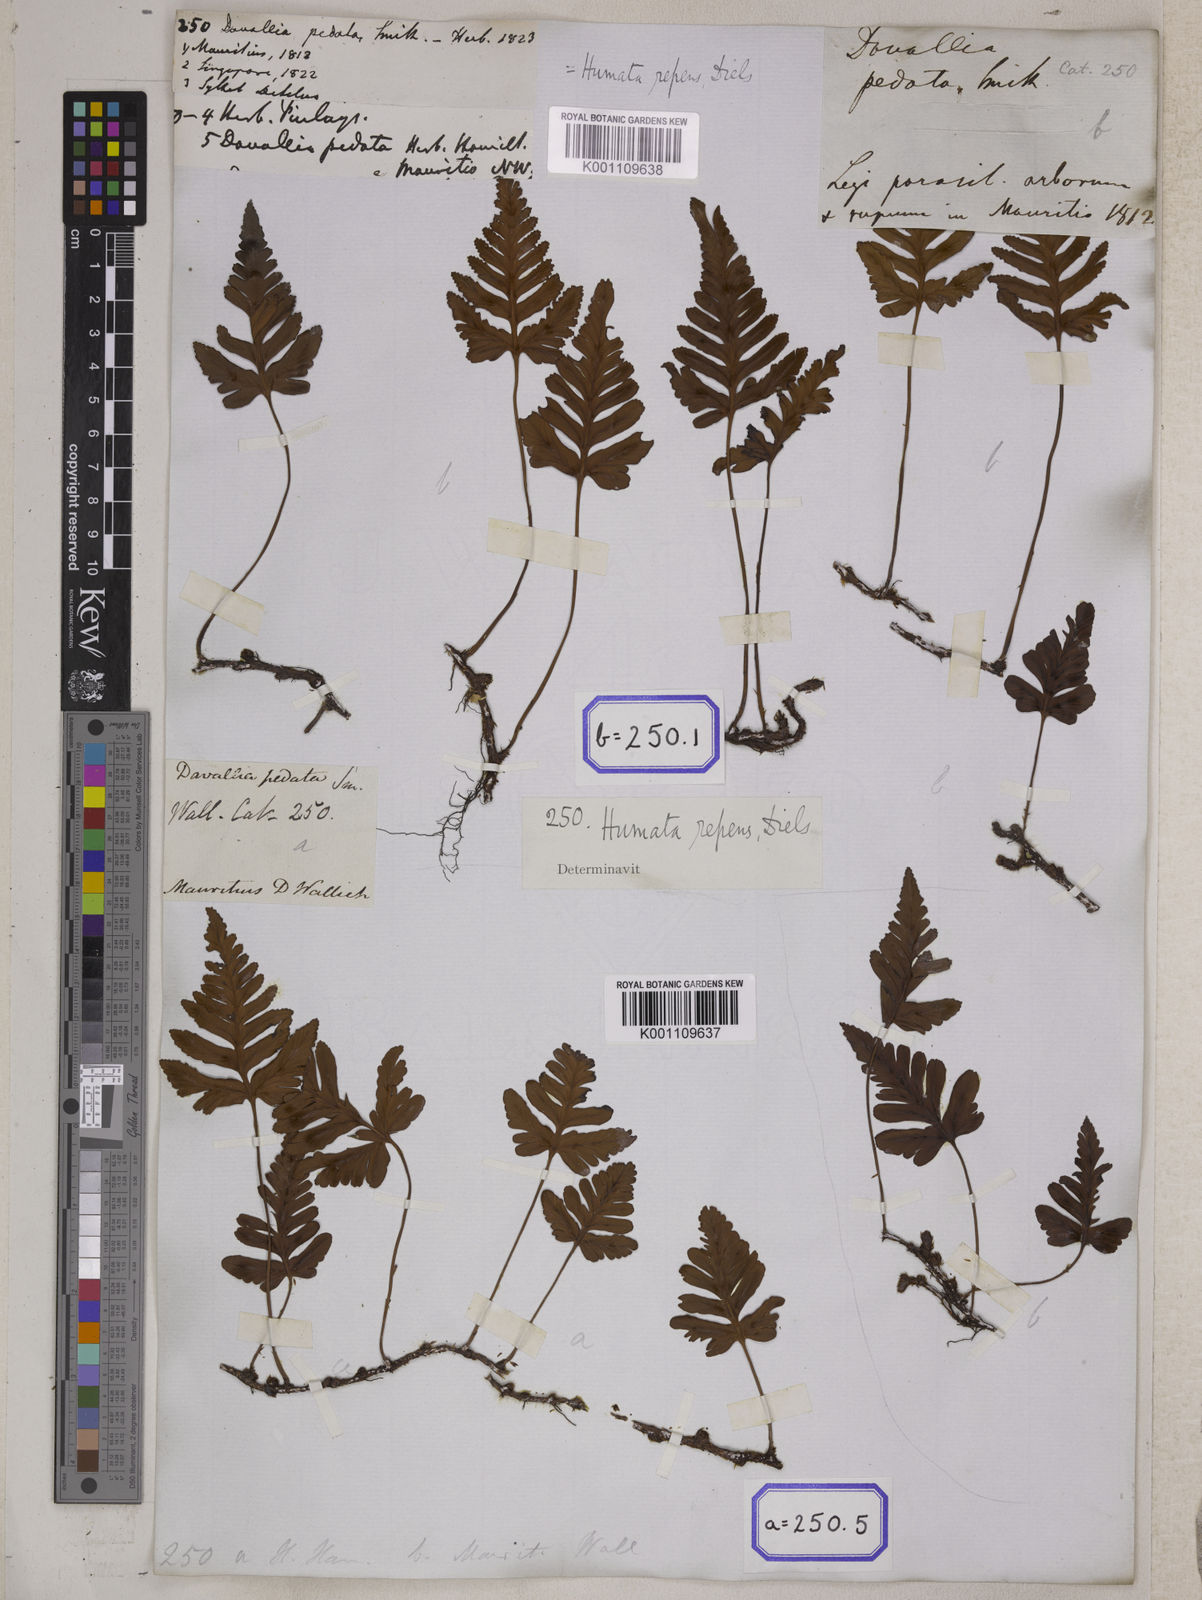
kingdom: Plantae
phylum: Tracheophyta
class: Polypodiopsida
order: Polypodiales
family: Davalliaceae
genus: Davallia
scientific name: Davallia repens
